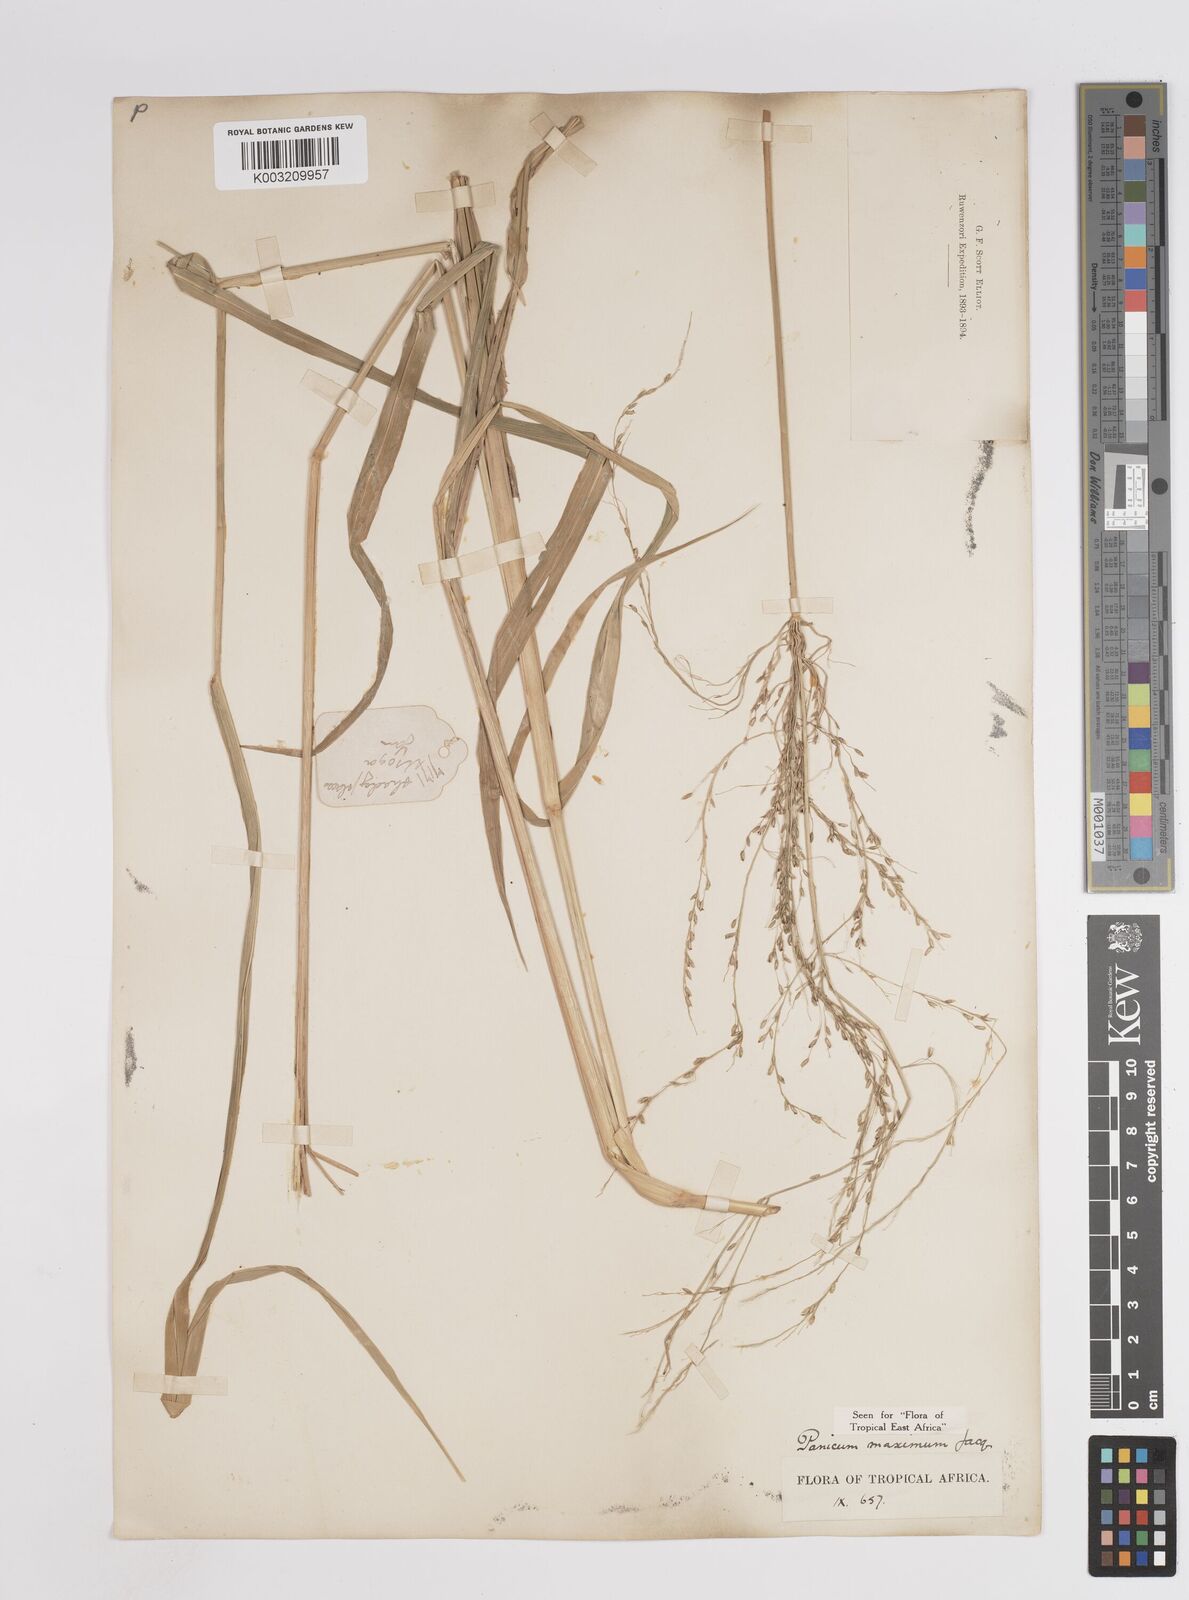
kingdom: Plantae
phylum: Tracheophyta
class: Liliopsida
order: Poales
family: Poaceae
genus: Megathyrsus
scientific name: Megathyrsus maximus
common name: Guineagrass
